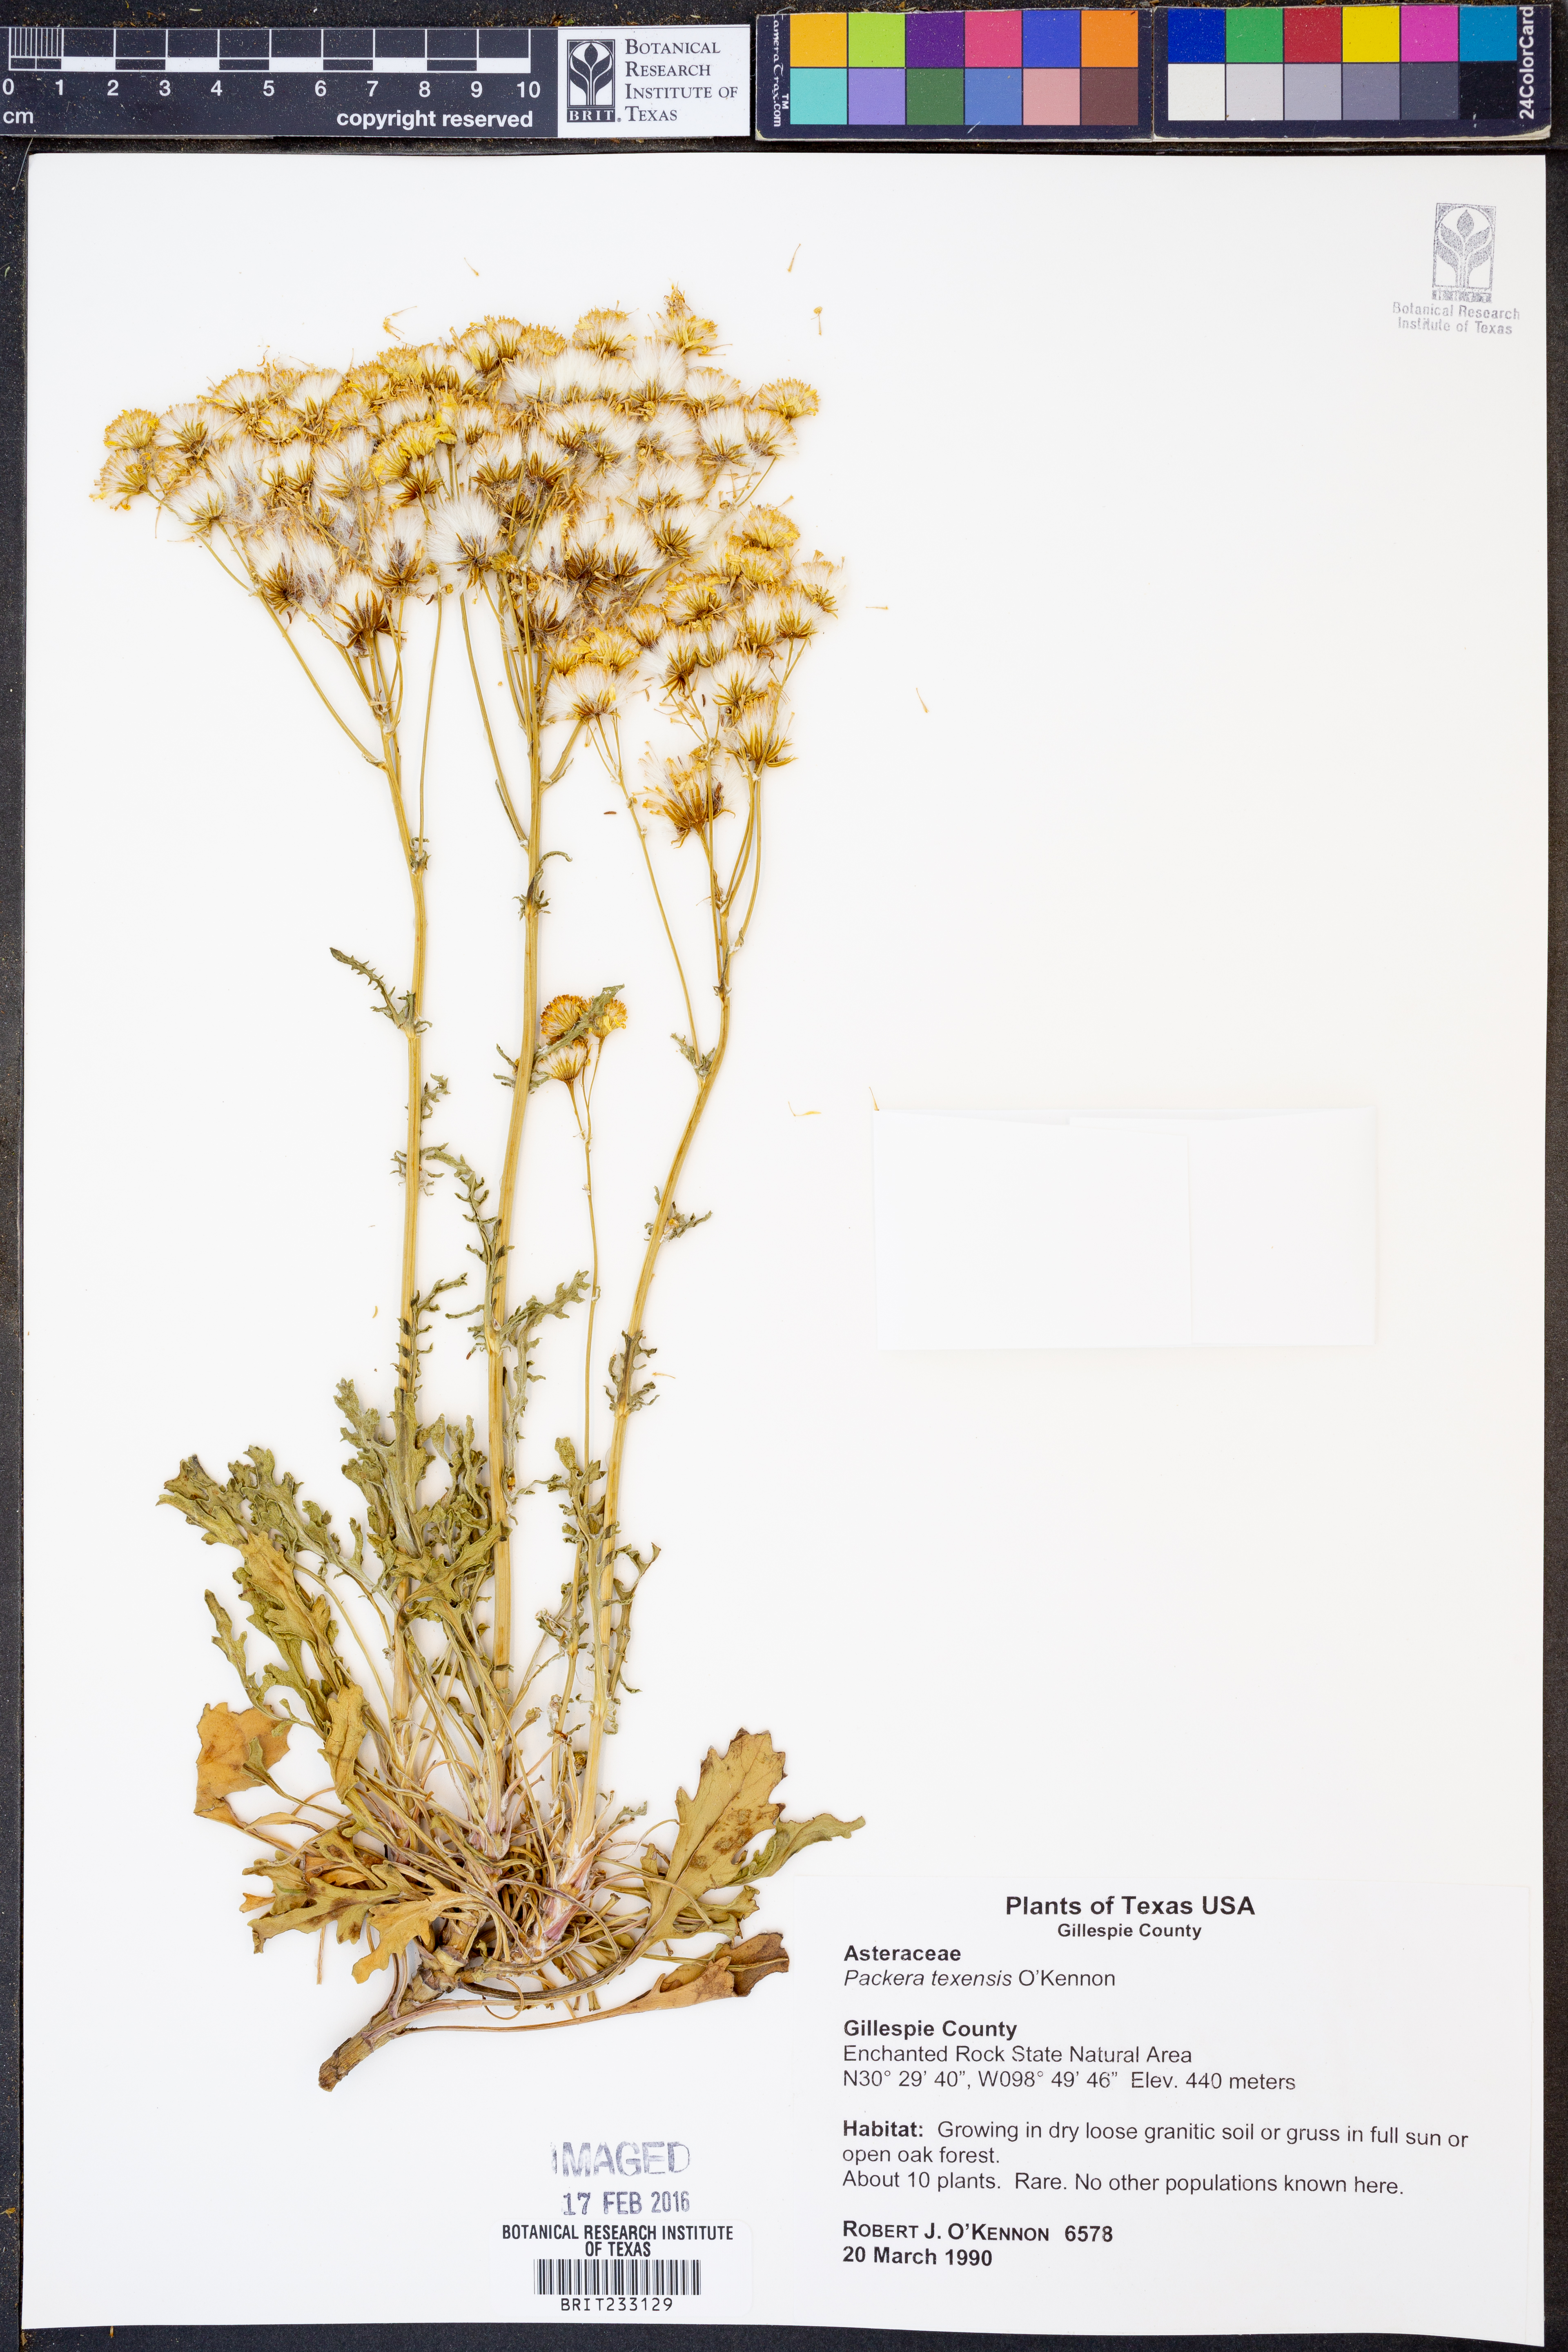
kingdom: Plantae
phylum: Tracheophyta
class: Magnoliopsida
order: Asterales
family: Asteraceae
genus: Packera
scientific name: Packera texensis
